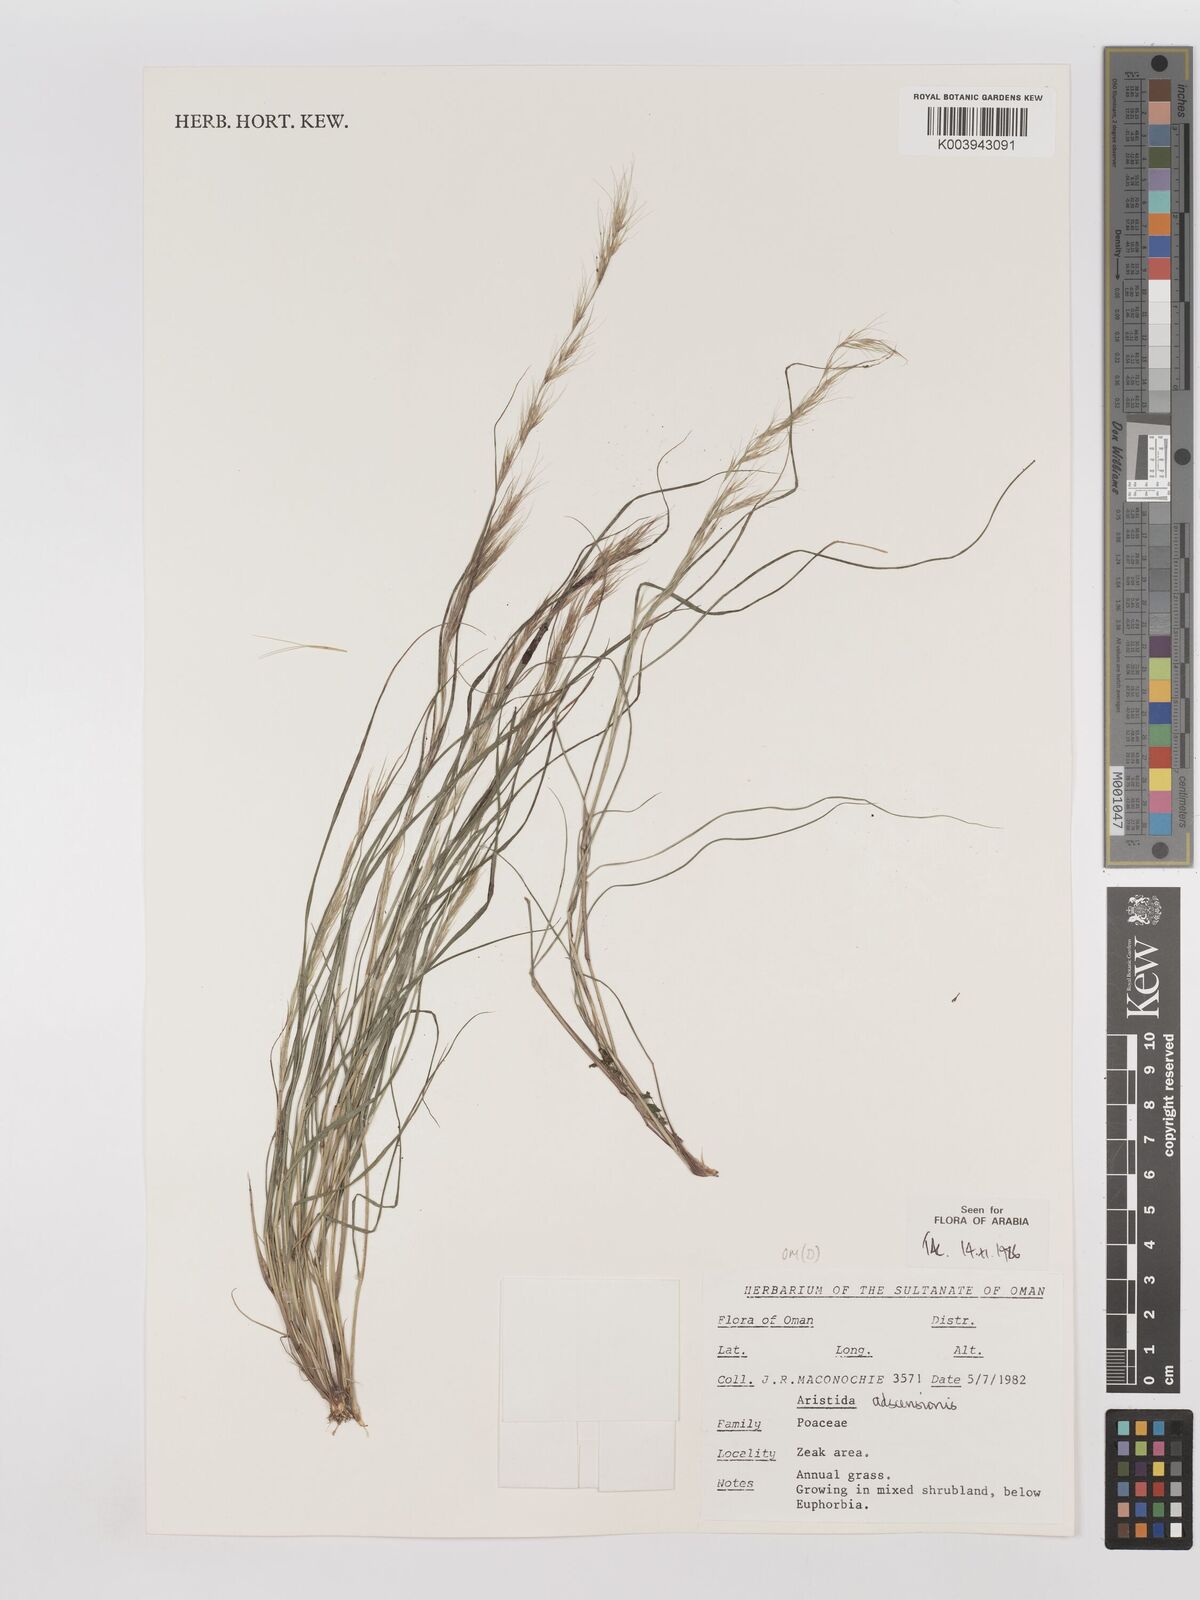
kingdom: Plantae
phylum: Tracheophyta
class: Liliopsida
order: Poales
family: Poaceae
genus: Aristida
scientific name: Aristida adscensionis
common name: Sixweeks threeawn
